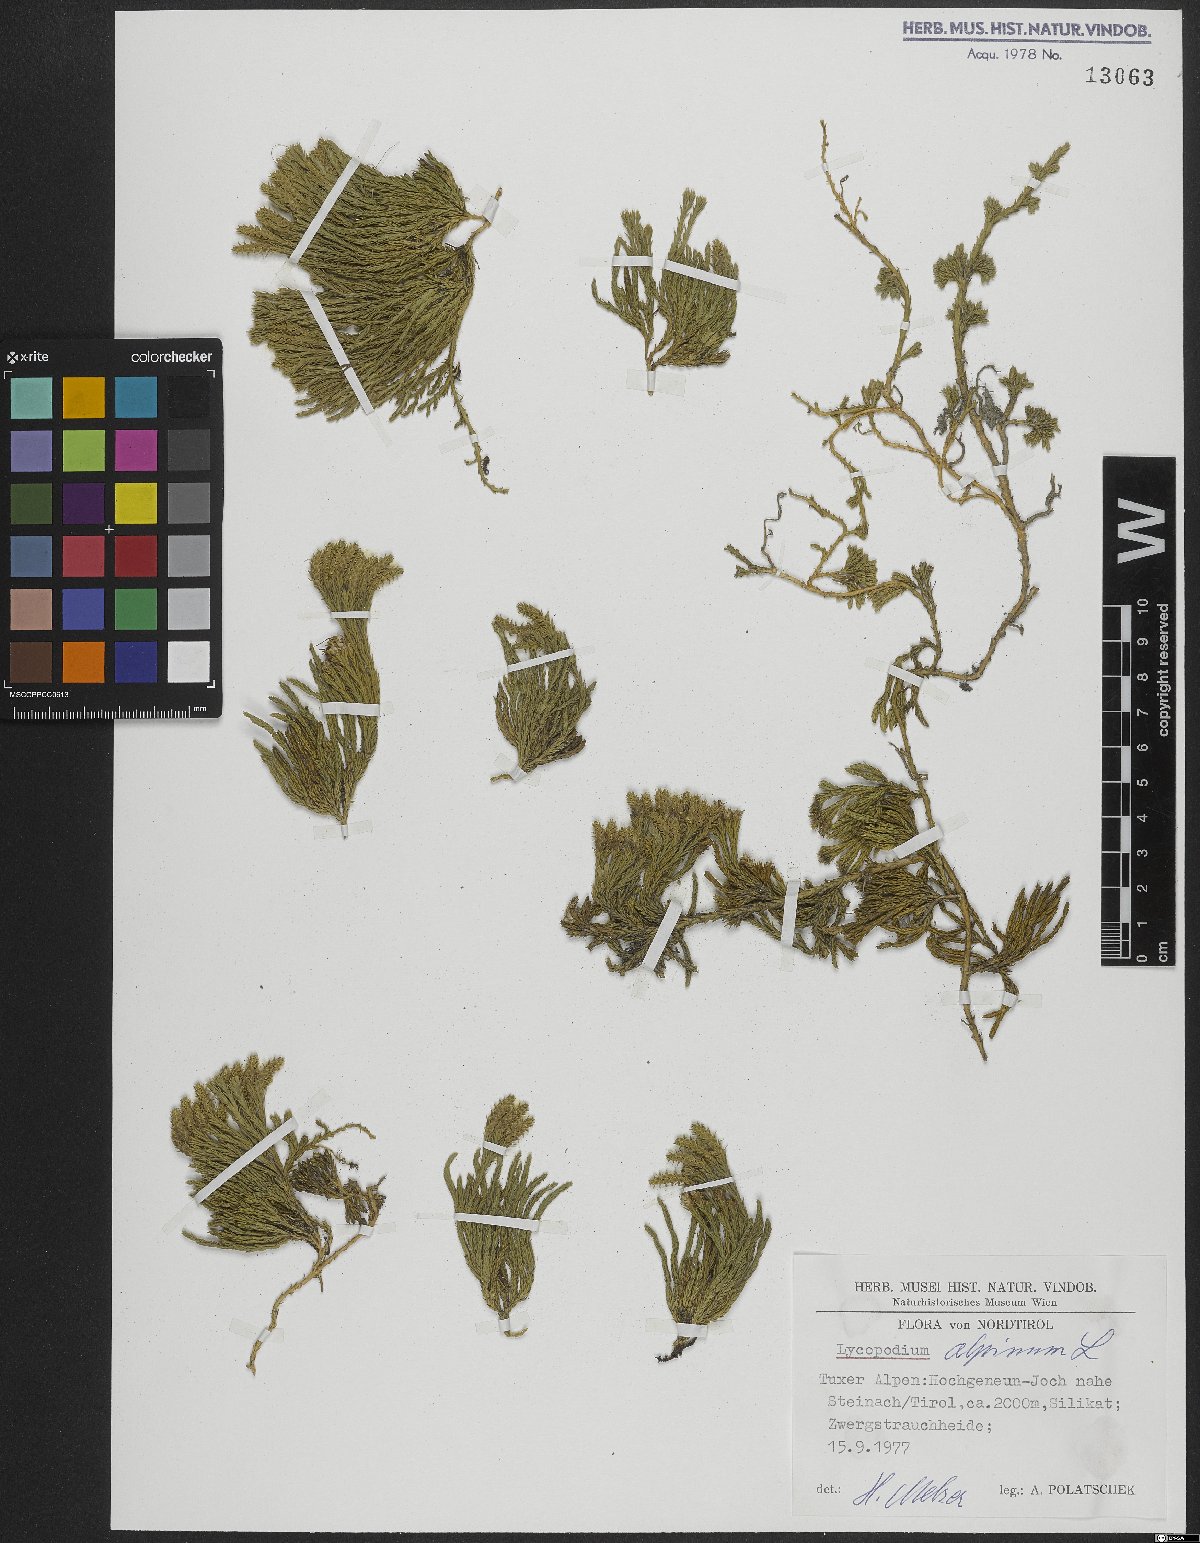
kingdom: Plantae
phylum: Tracheophyta
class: Lycopodiopsida
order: Lycopodiales
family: Lycopodiaceae
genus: Diphasiastrum
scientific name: Diphasiastrum alpinum
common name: Alpine clubmoss
